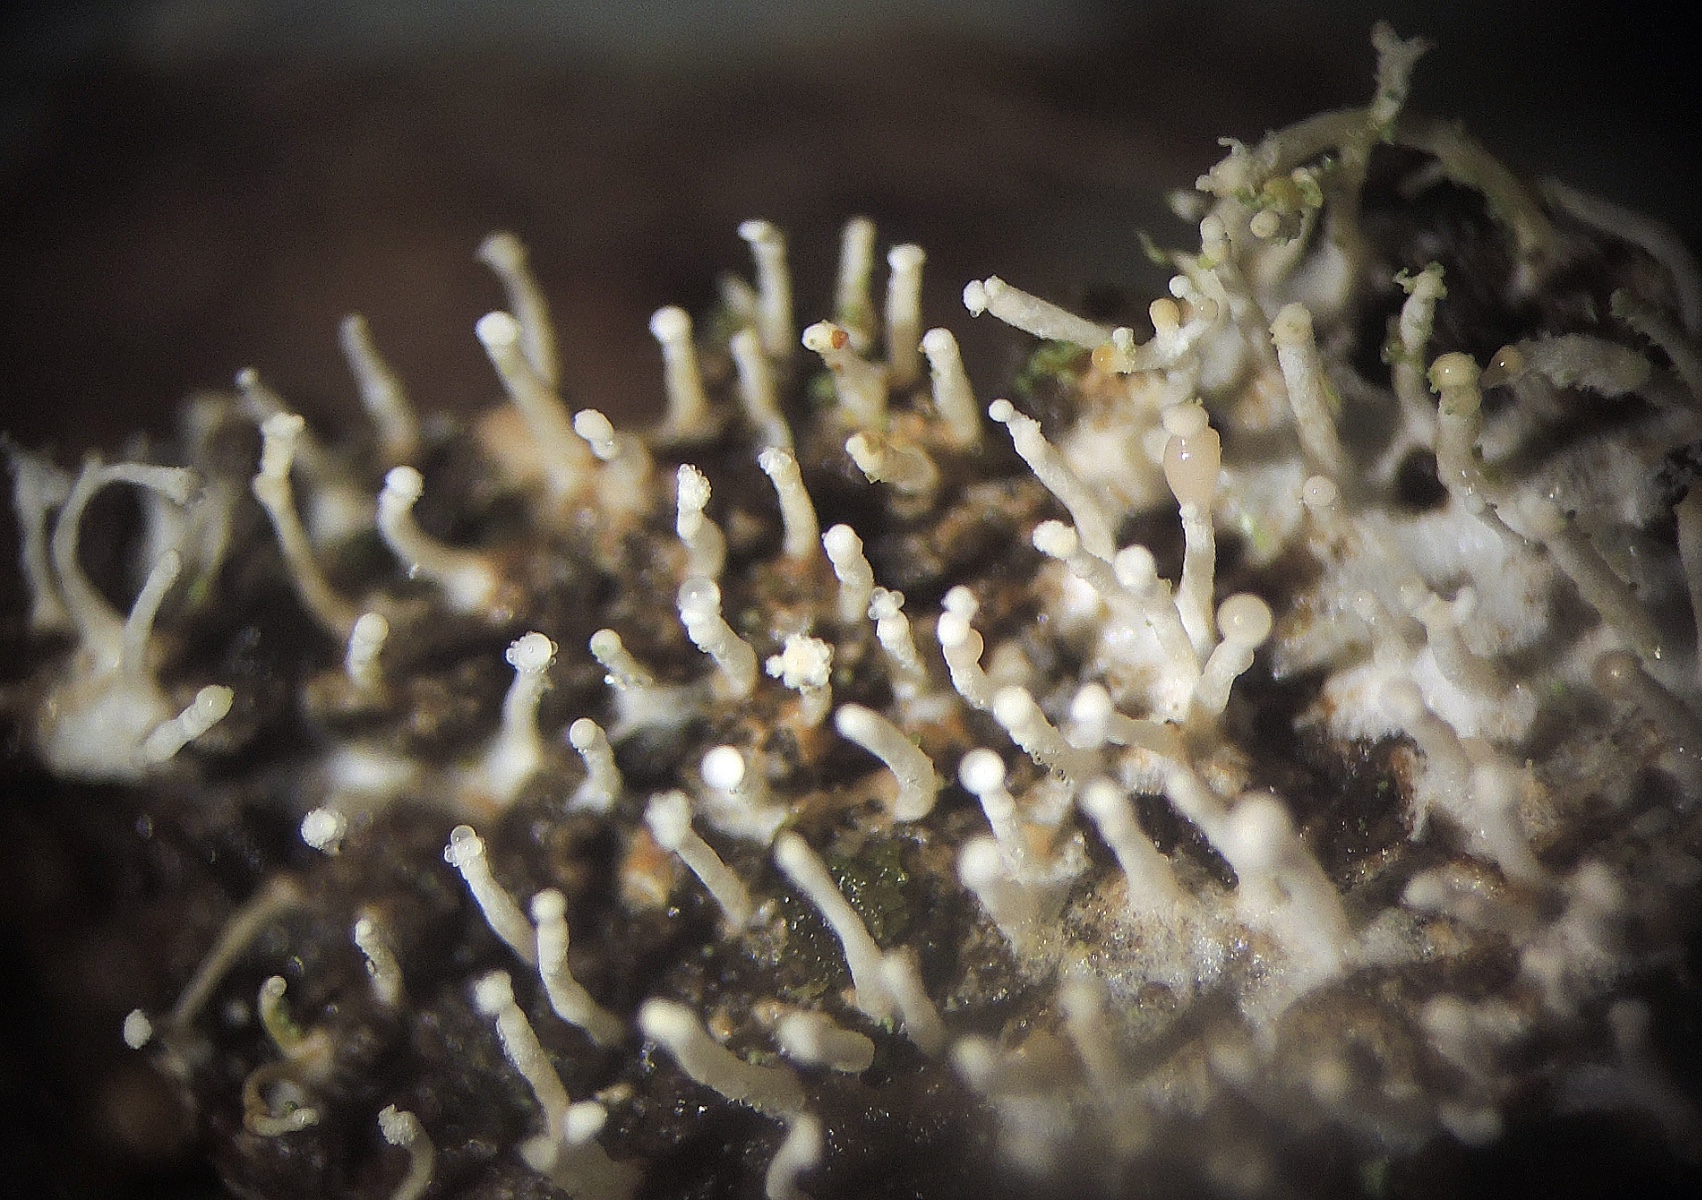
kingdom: Fungi
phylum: Ascomycota
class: Sordariomycetes
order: Hypocreales
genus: Stilbella
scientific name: Stilbella byssiseda
